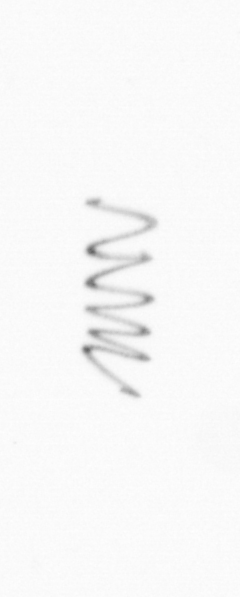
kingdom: Chromista
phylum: Ochrophyta
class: Bacillariophyceae
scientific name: Bacillariophyceae
